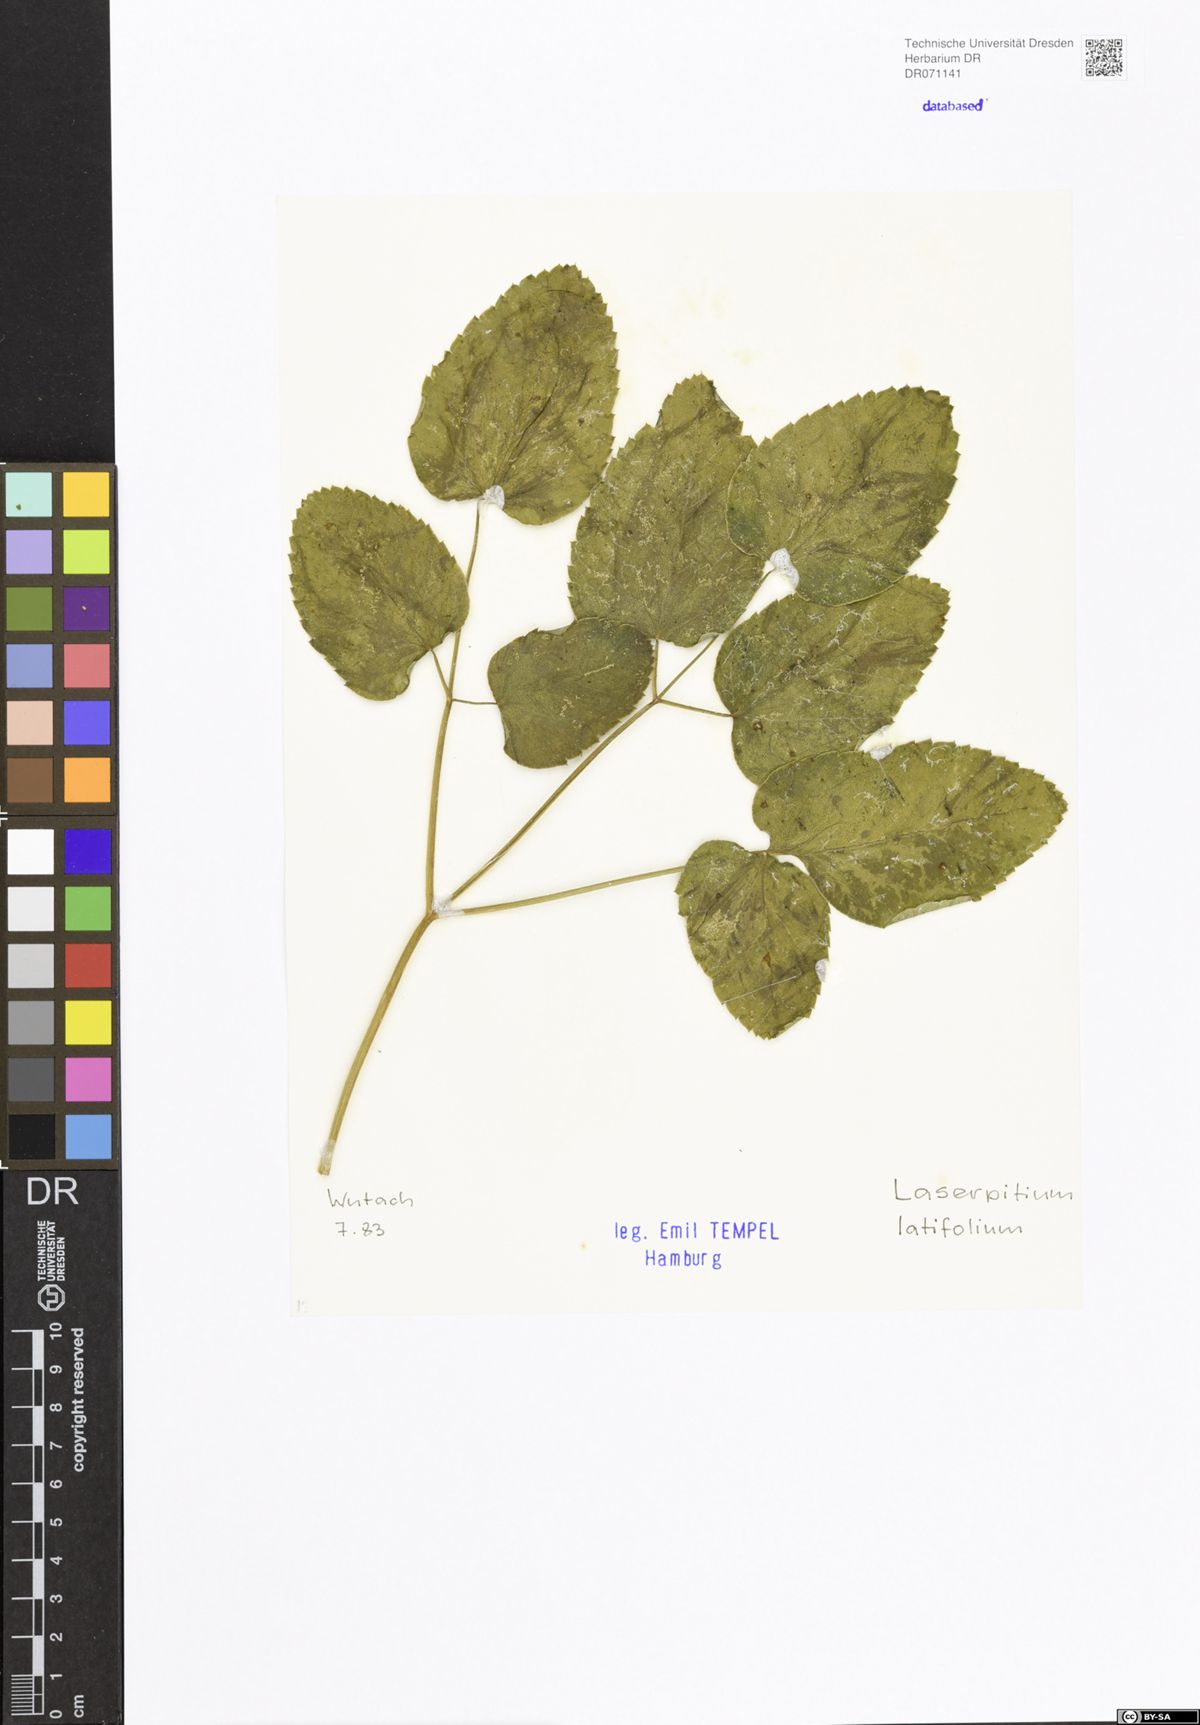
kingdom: Plantae
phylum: Tracheophyta
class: Magnoliopsida
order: Apiales
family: Apiaceae
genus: Laserpitium
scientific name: Laserpitium latifolium
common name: Broadleaf sermountain
